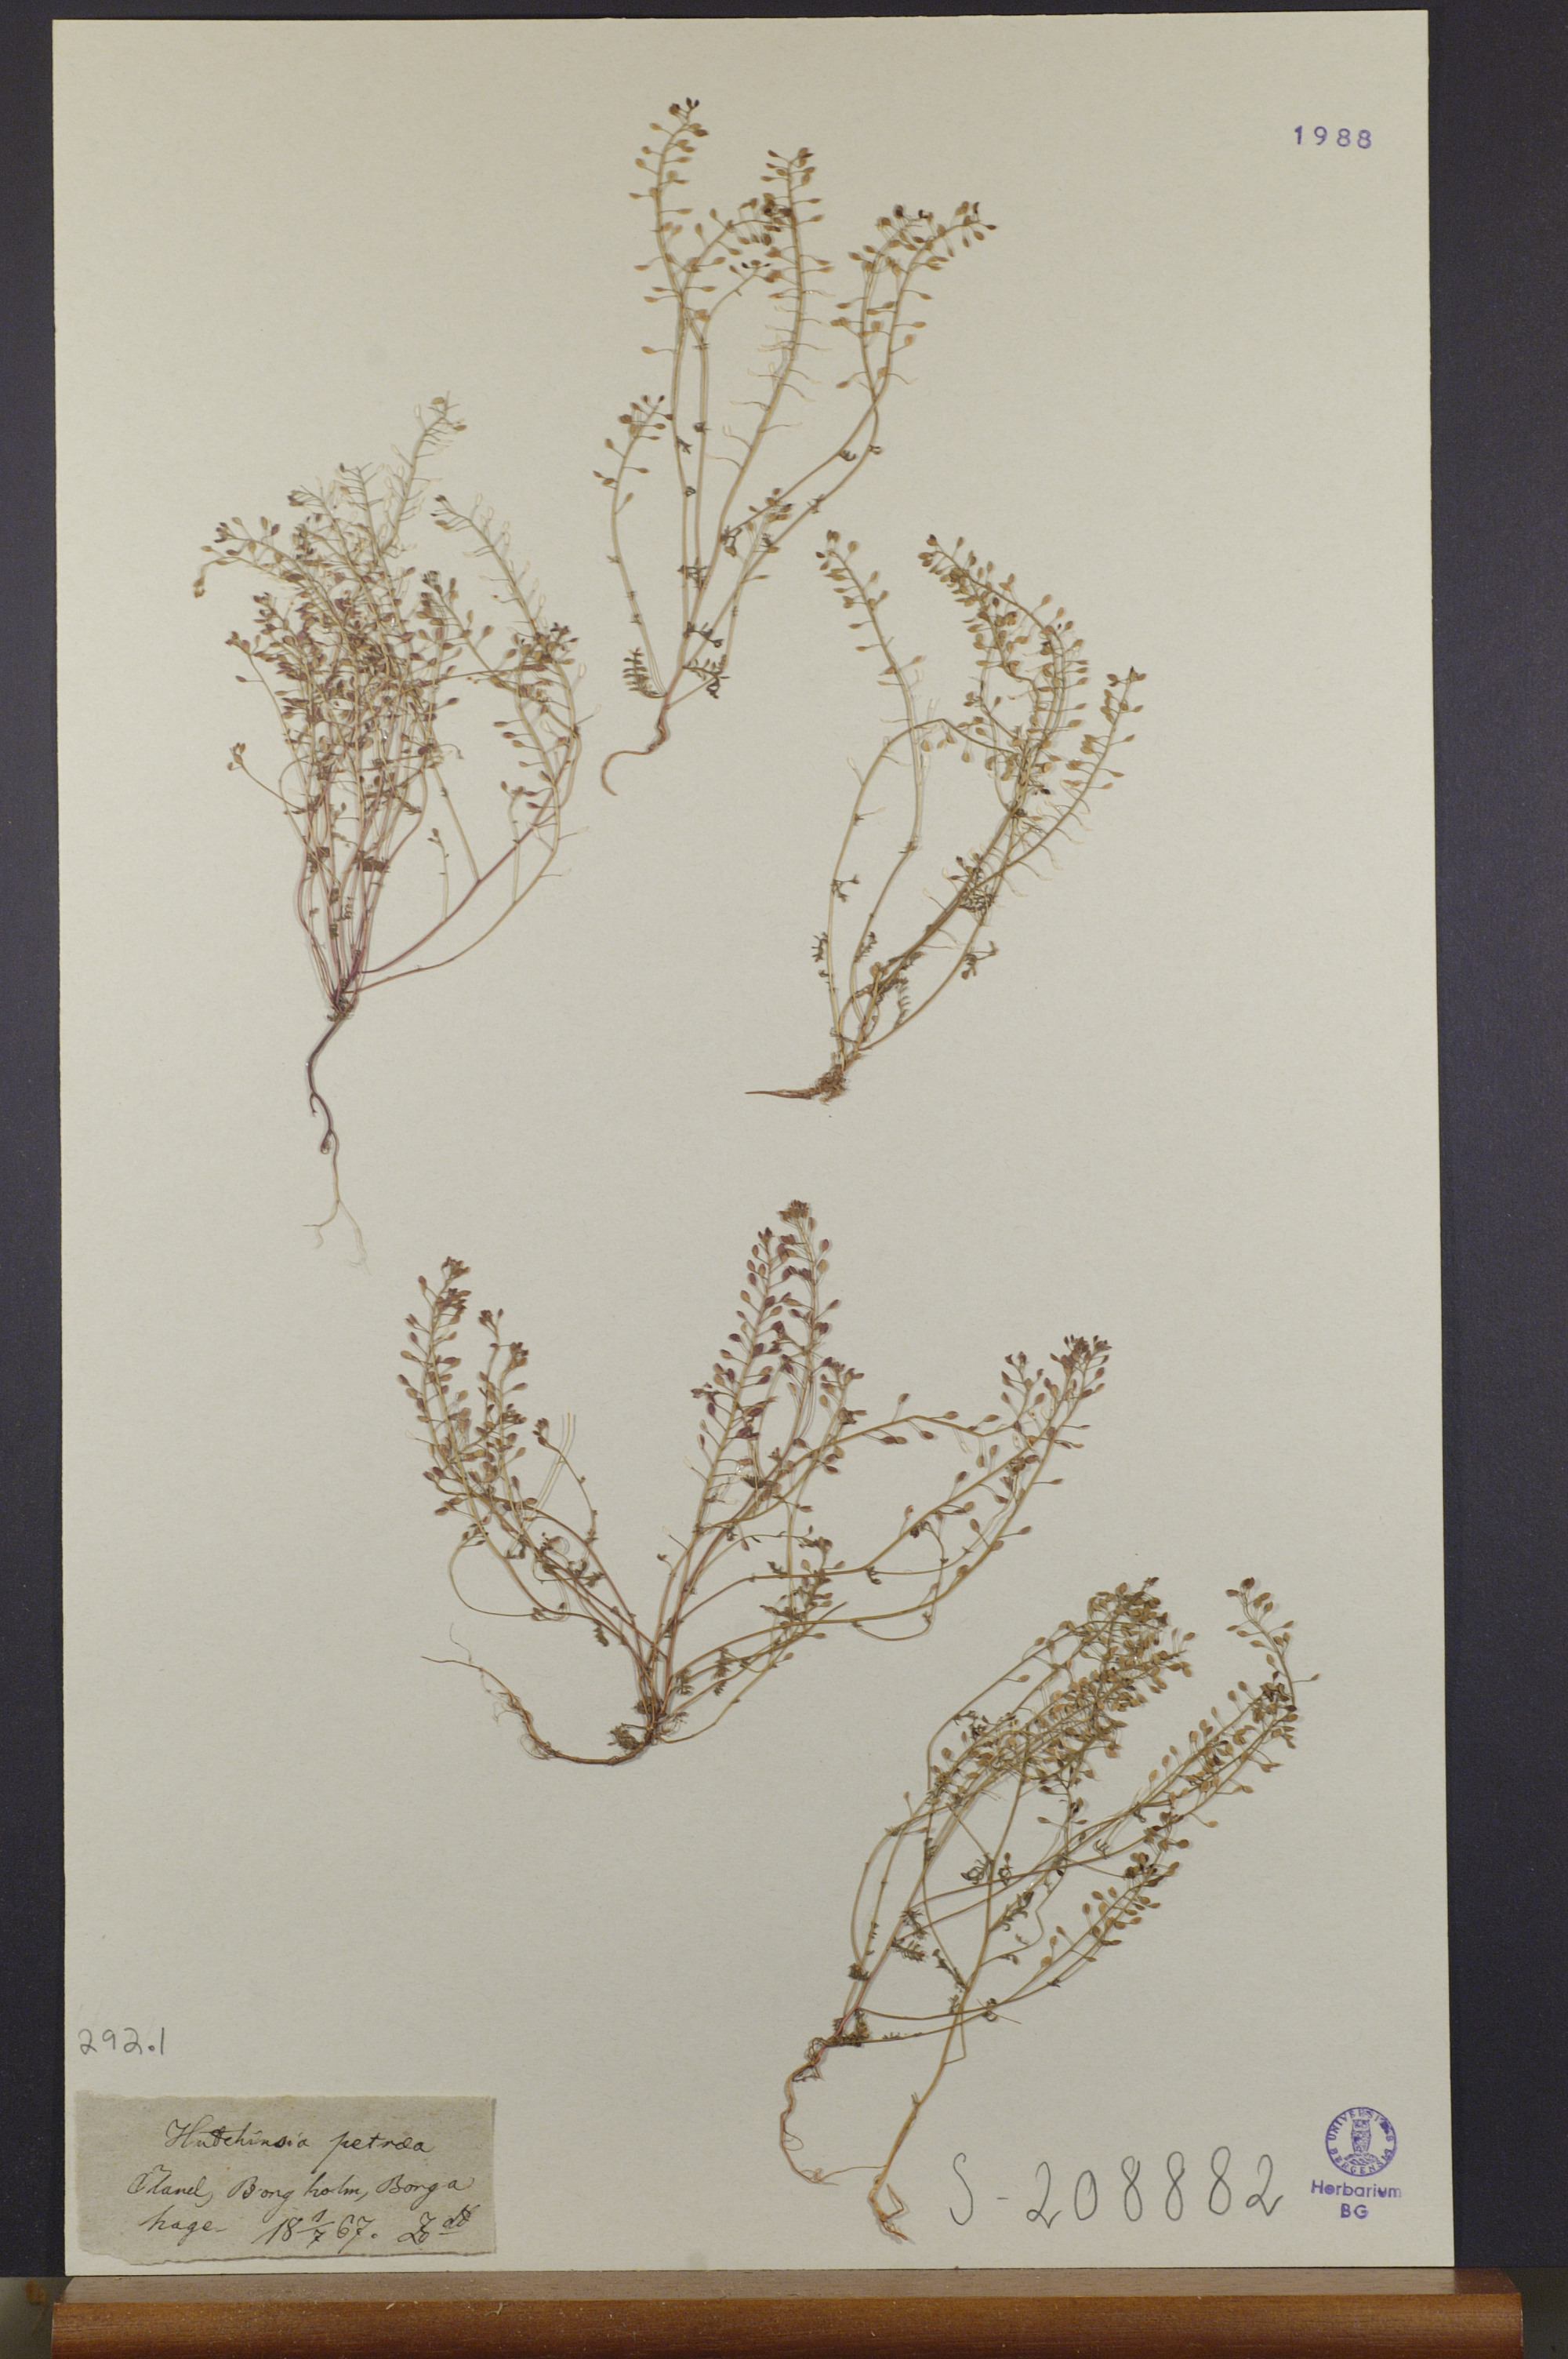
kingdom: Plantae
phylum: Tracheophyta
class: Magnoliopsida
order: Brassicales
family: Brassicaceae
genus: Hornungia
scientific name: Hornungia petraea
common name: Hutchinsia
